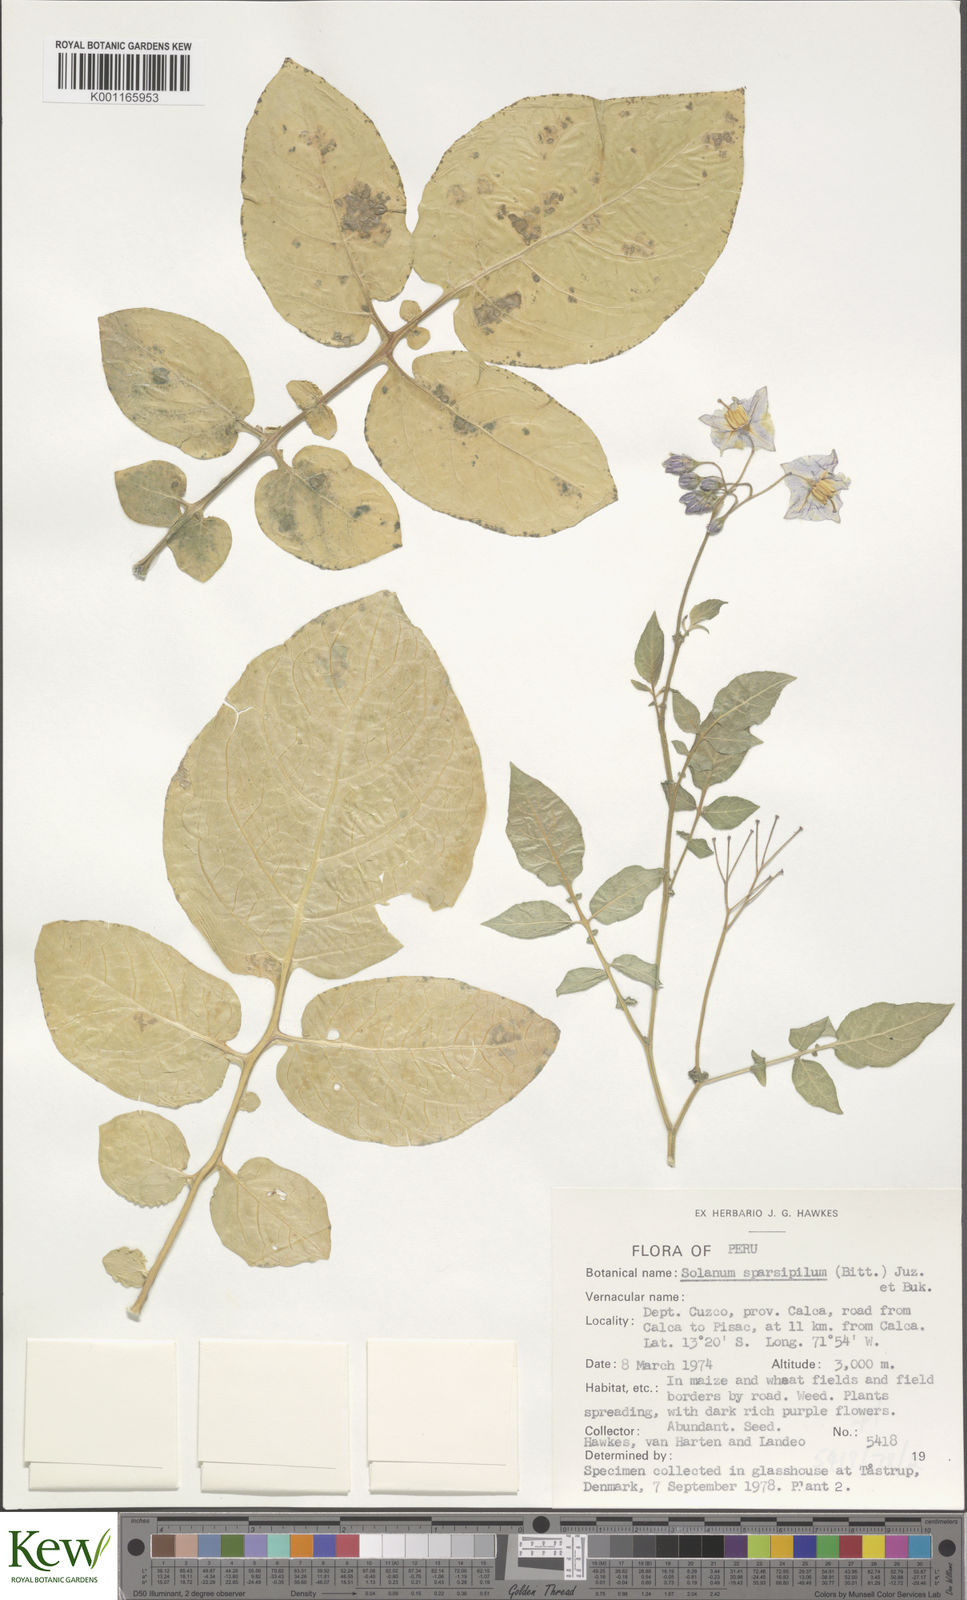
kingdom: Plantae
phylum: Tracheophyta
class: Magnoliopsida
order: Solanales
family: Solanaceae
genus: Solanum
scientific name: Solanum brevicaule
